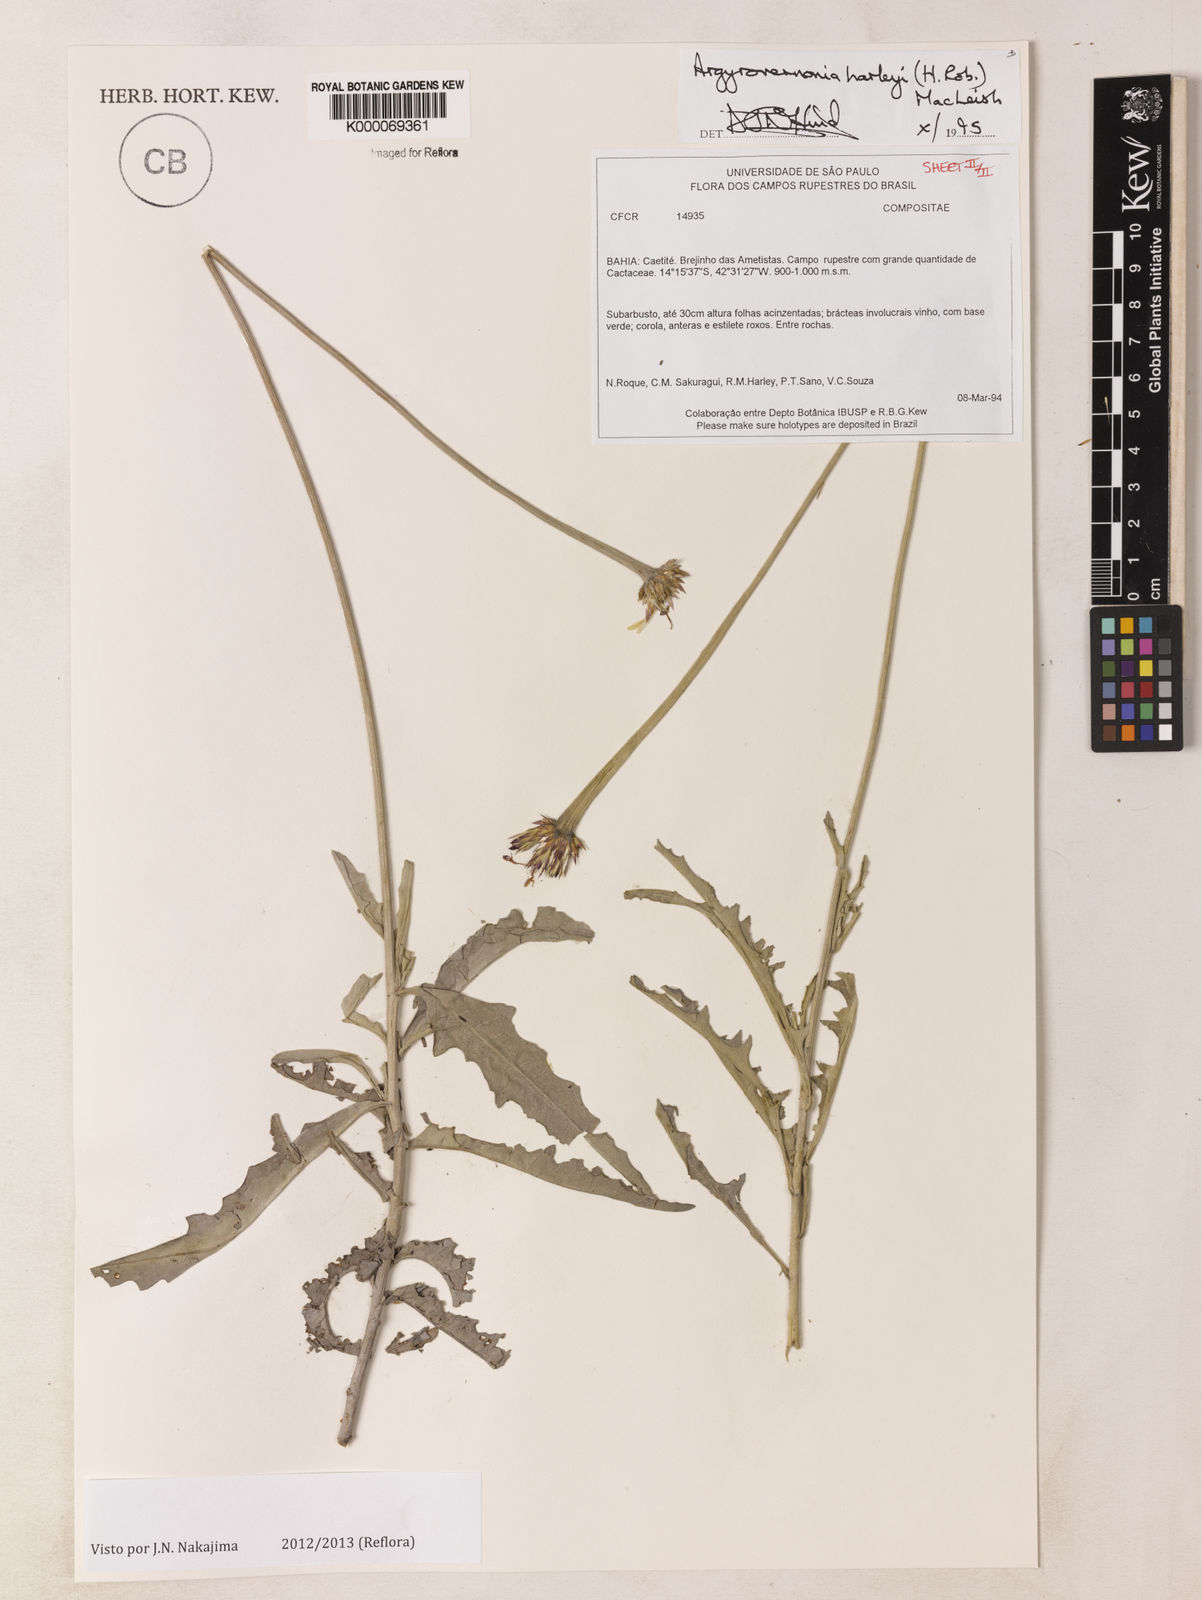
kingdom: Plantae
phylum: Tracheophyta
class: Magnoliopsida
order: Asterales
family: Asteraceae
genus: Chresta
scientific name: Chresta harleyi
